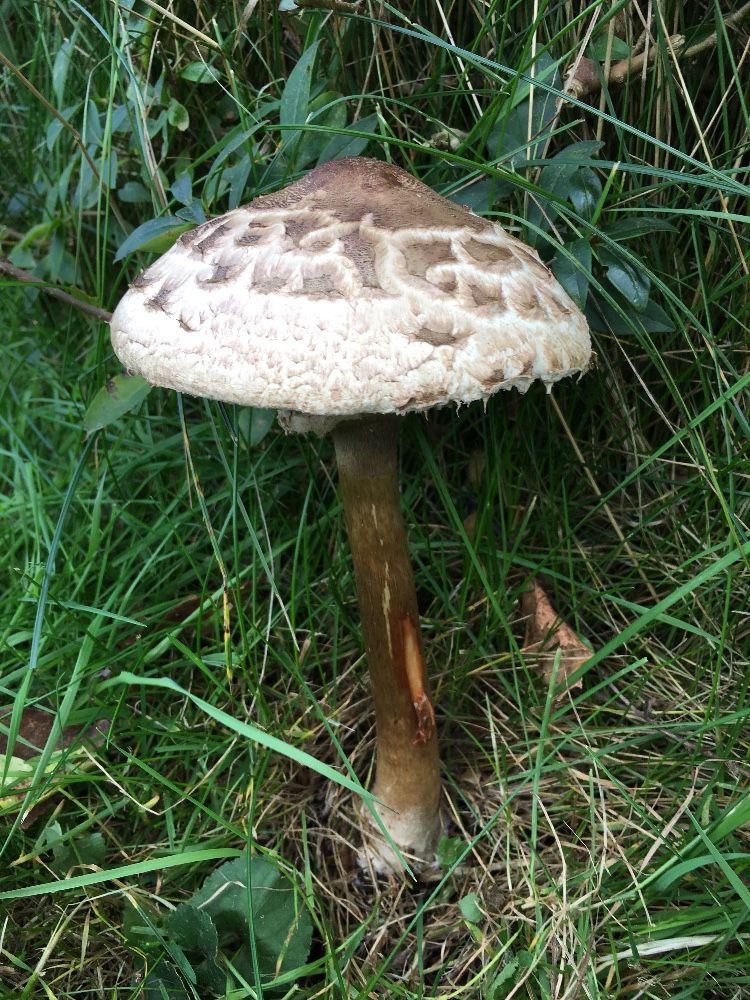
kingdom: Fungi
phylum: Basidiomycota
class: Agaricomycetes
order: Agaricales
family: Agaricaceae
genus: Chlorophyllum
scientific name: Chlorophyllum rhacodes
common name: ægte rabarberhat
